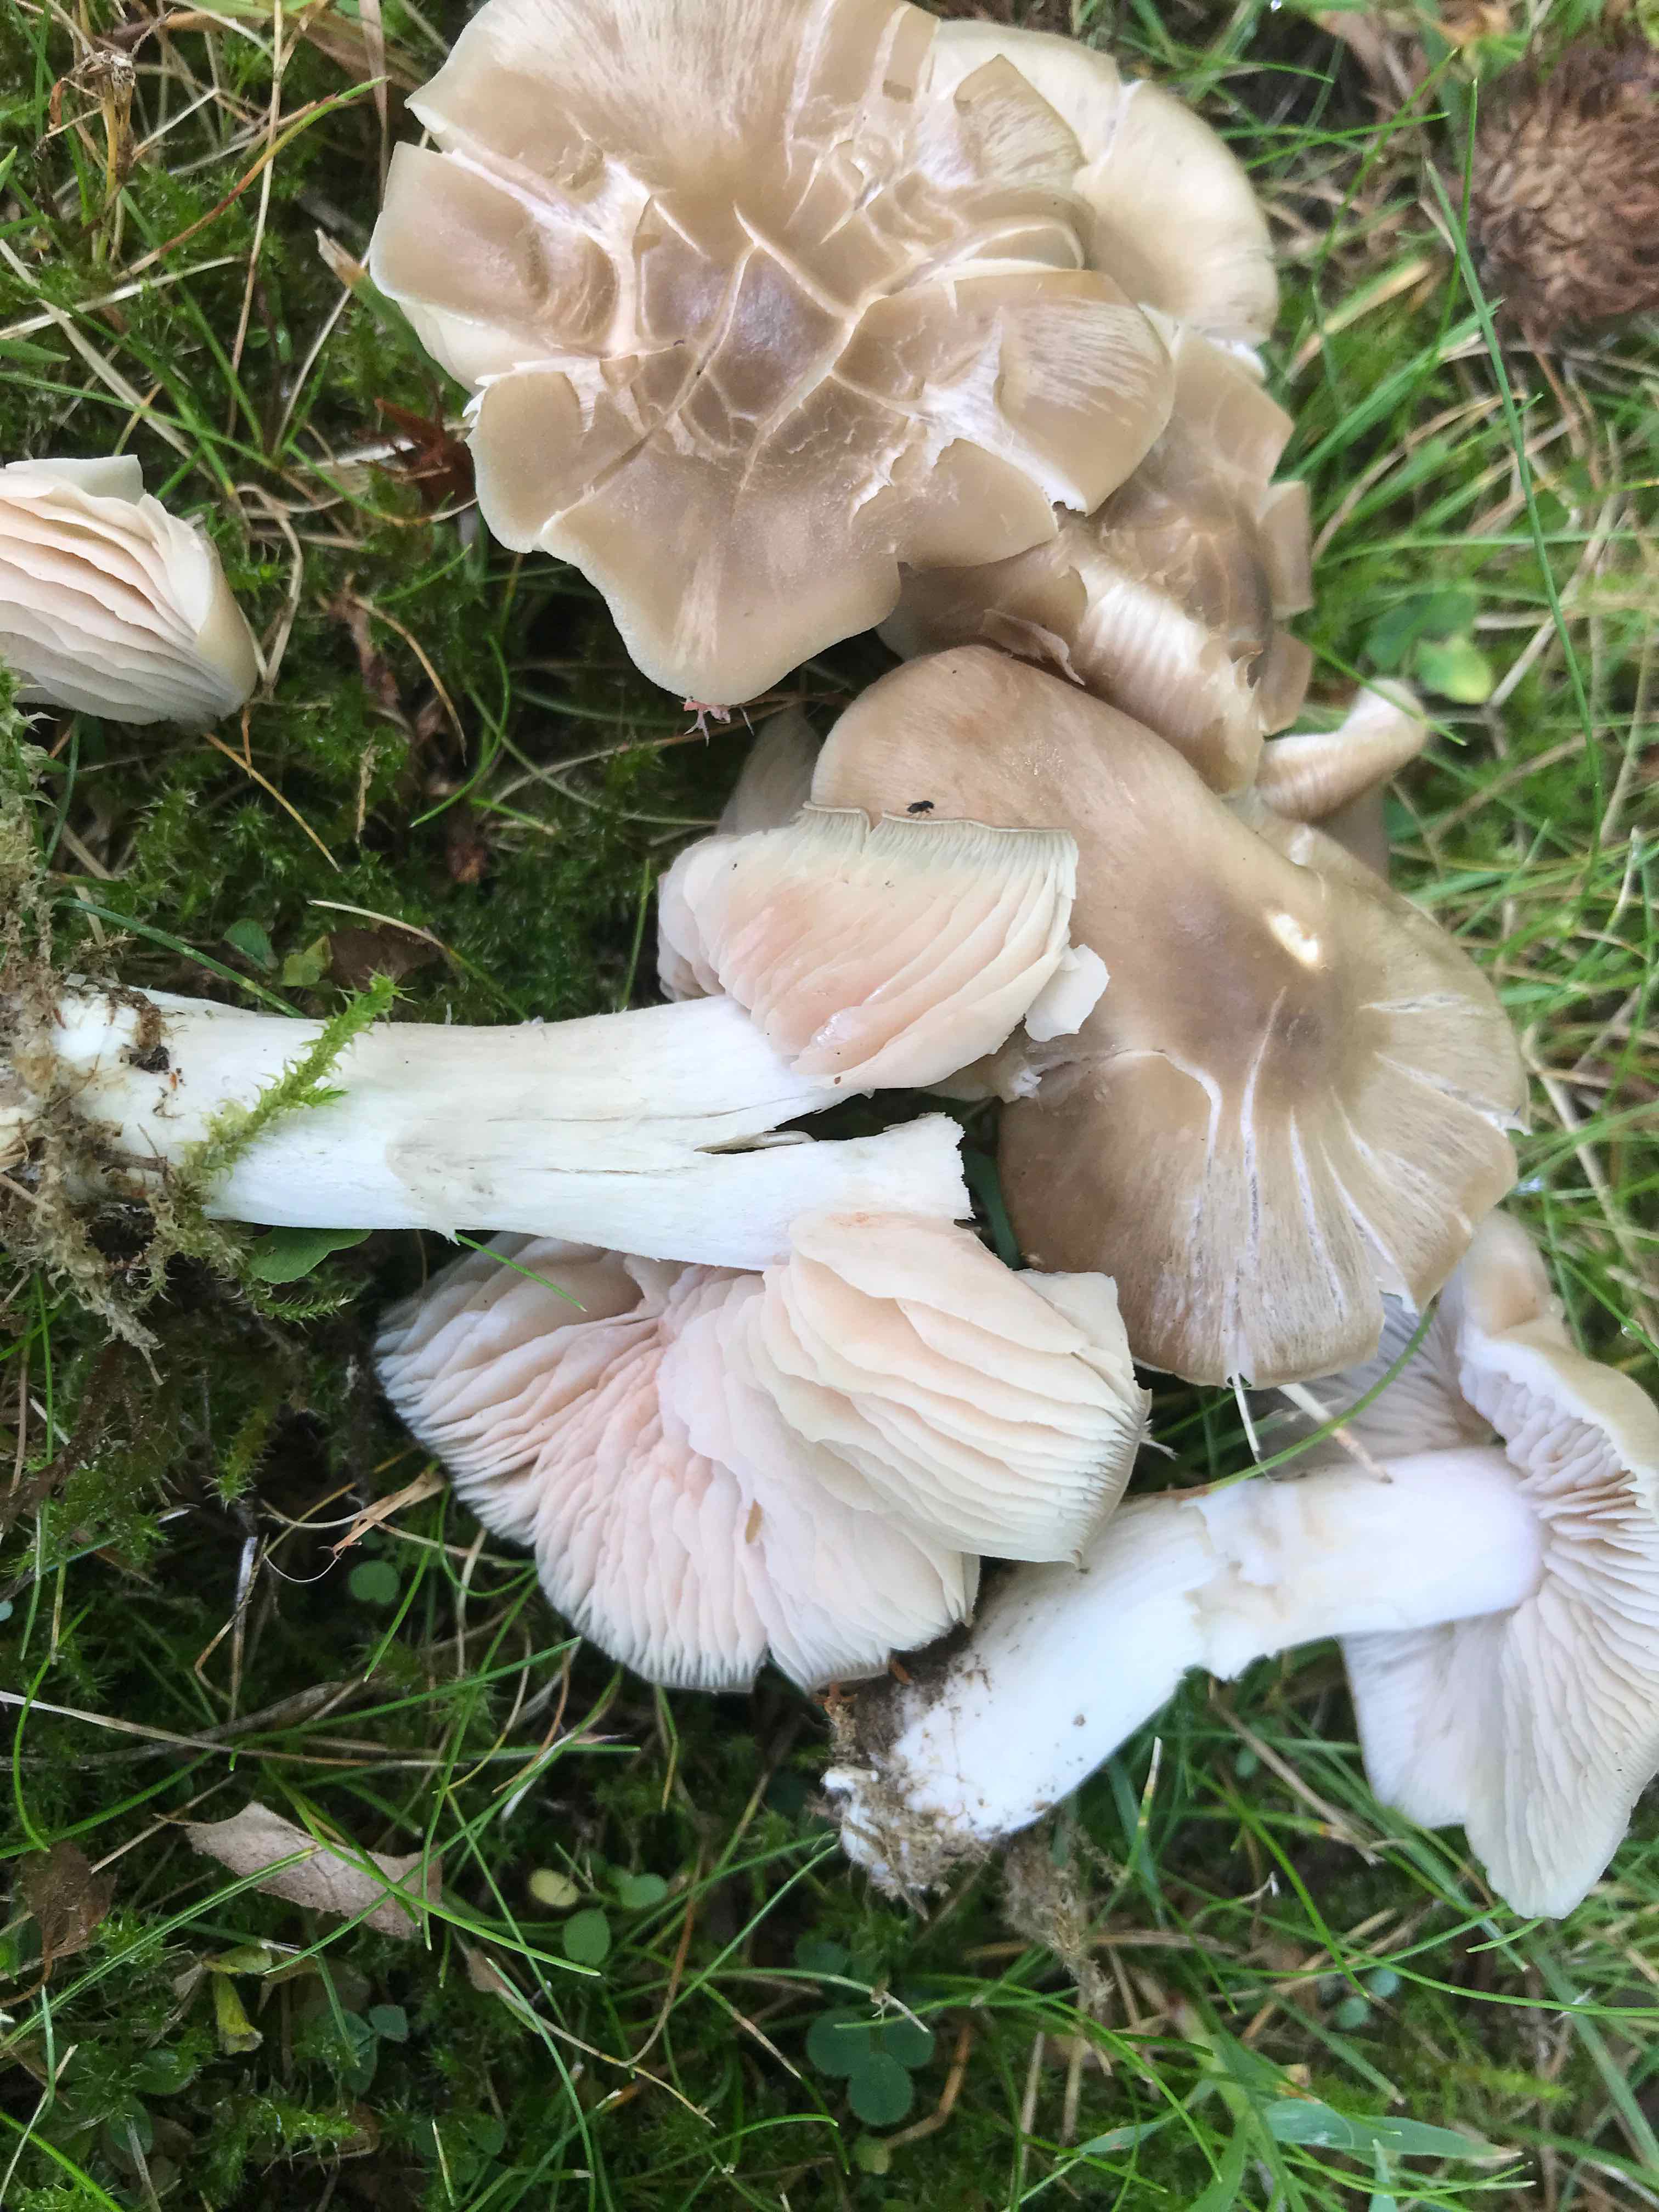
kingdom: Fungi
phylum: Basidiomycota
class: Agaricomycetes
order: Agaricales
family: Entolomataceae
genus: Entoloma
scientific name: Entoloma lividoalbum
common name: lysstokket rødblad
